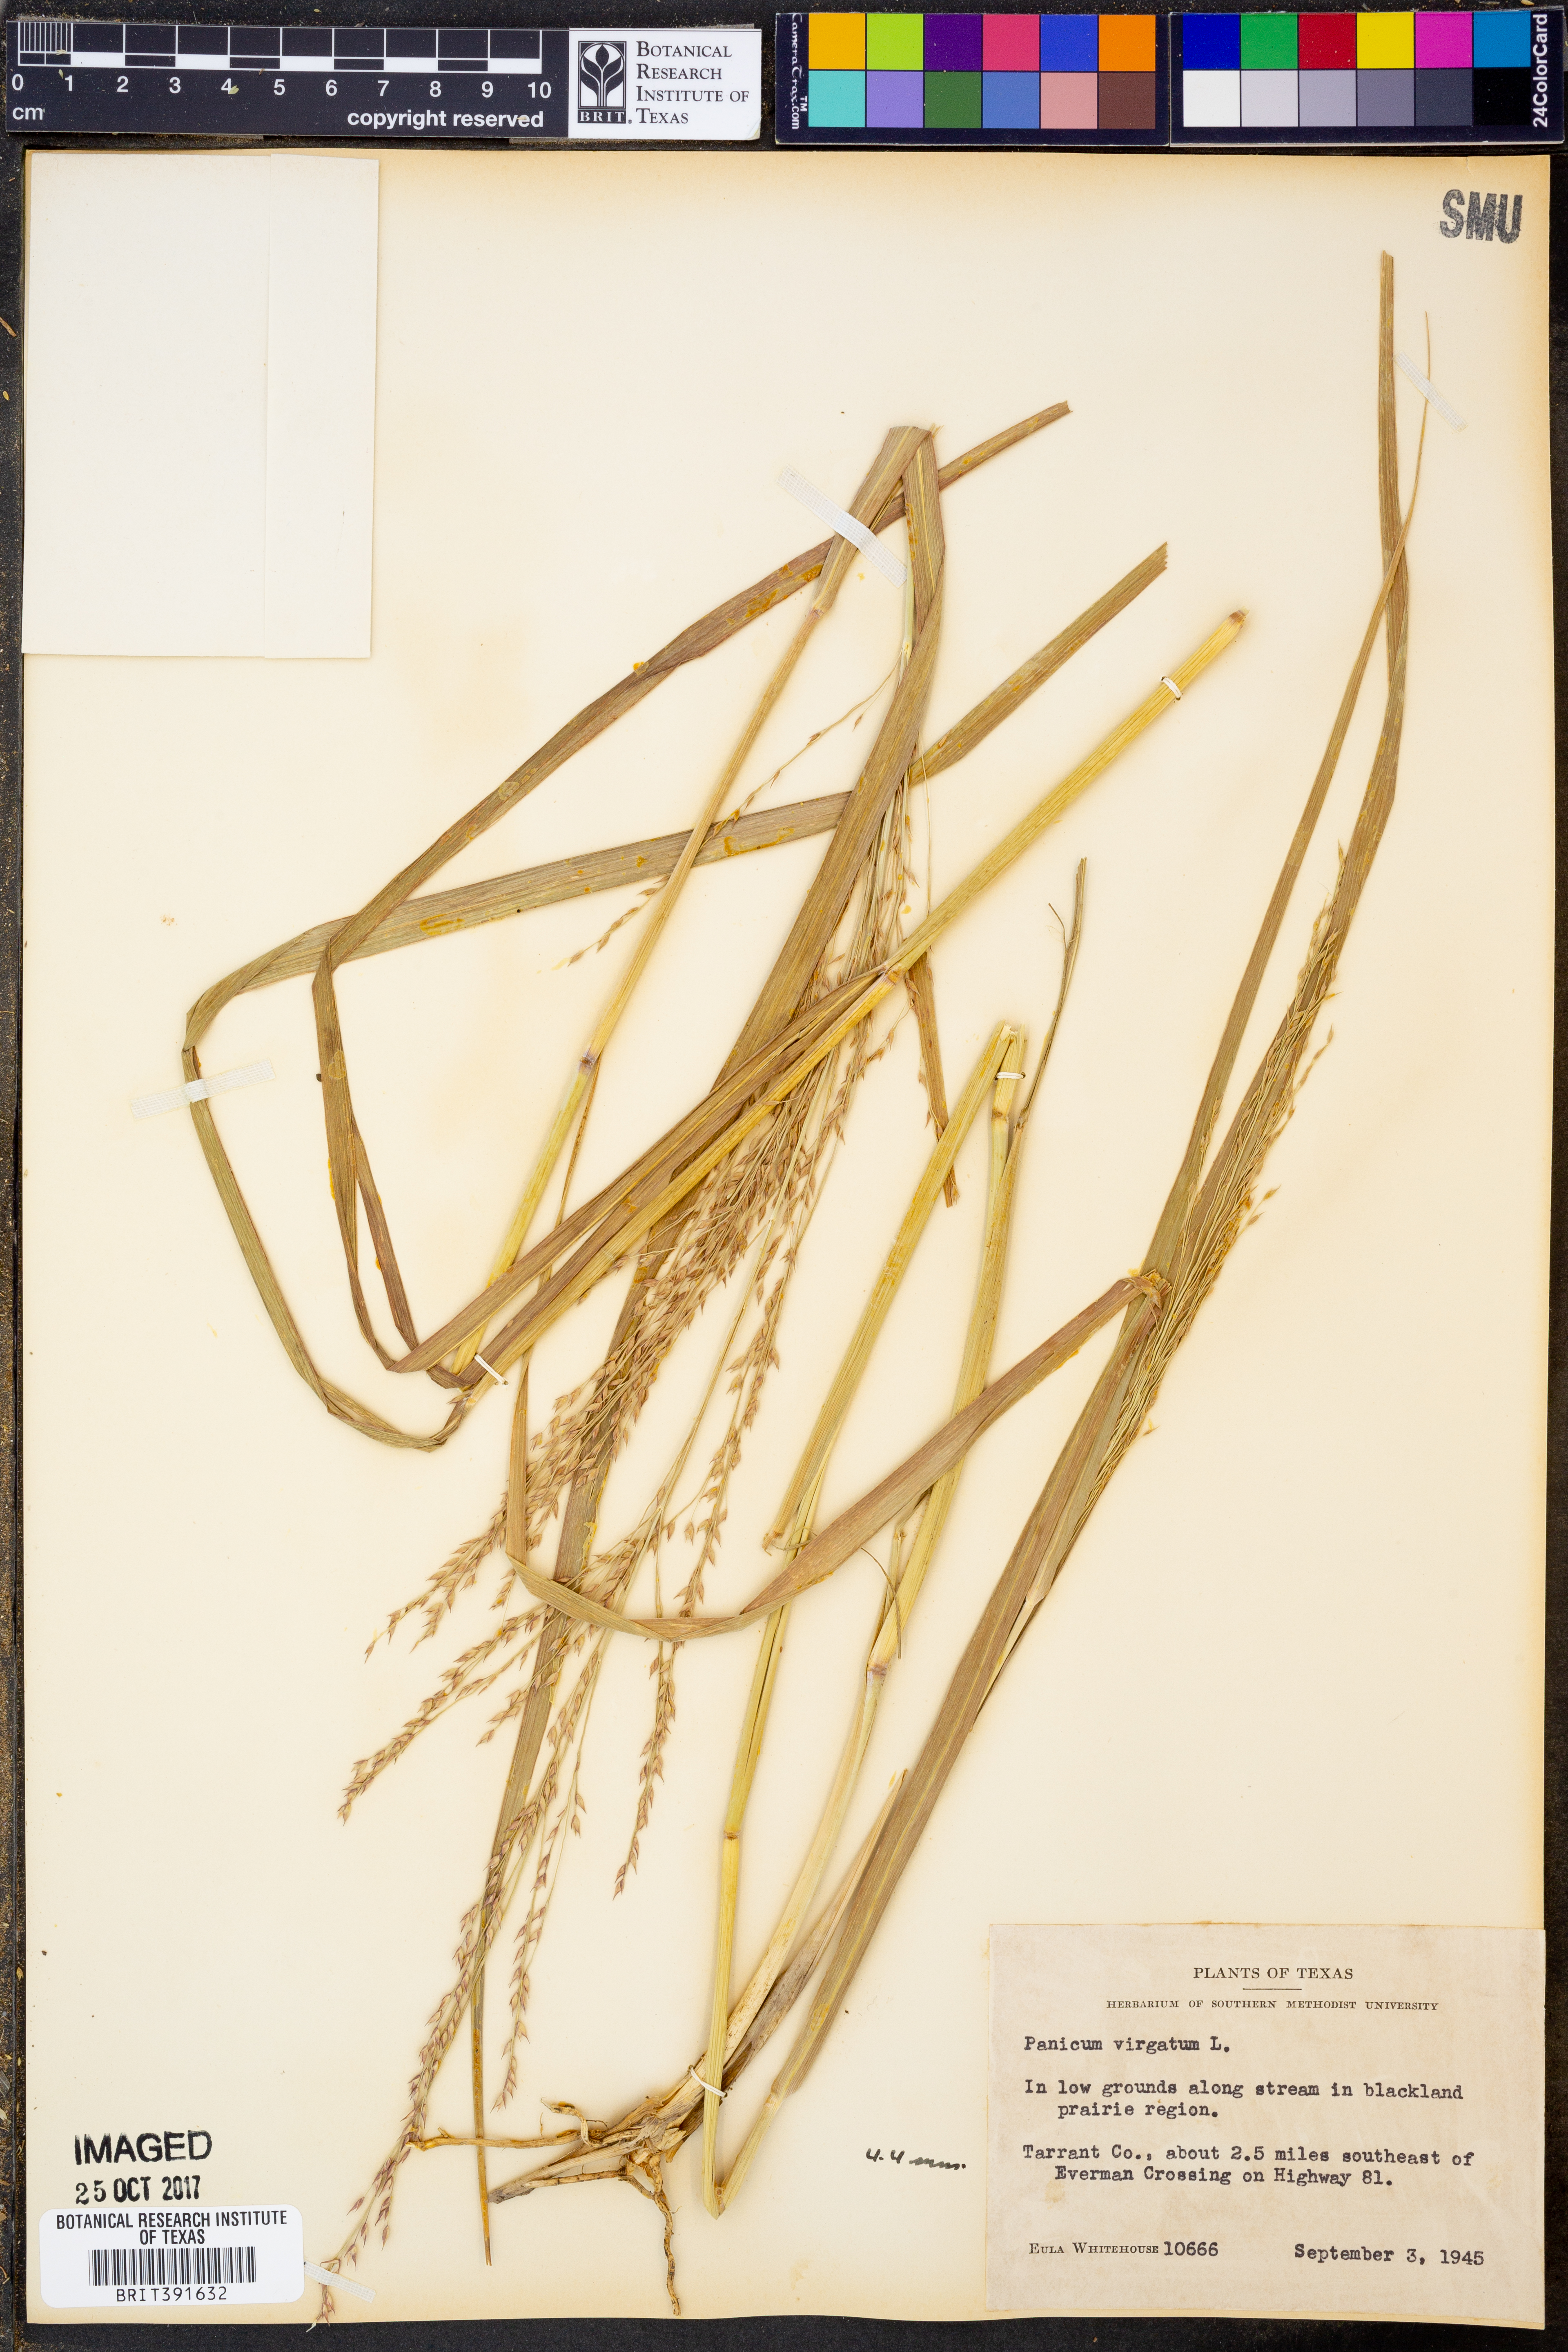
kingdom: Plantae
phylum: Tracheophyta
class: Liliopsida
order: Poales
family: Poaceae
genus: Panicum
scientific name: Panicum virgatum
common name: Switchgrass
